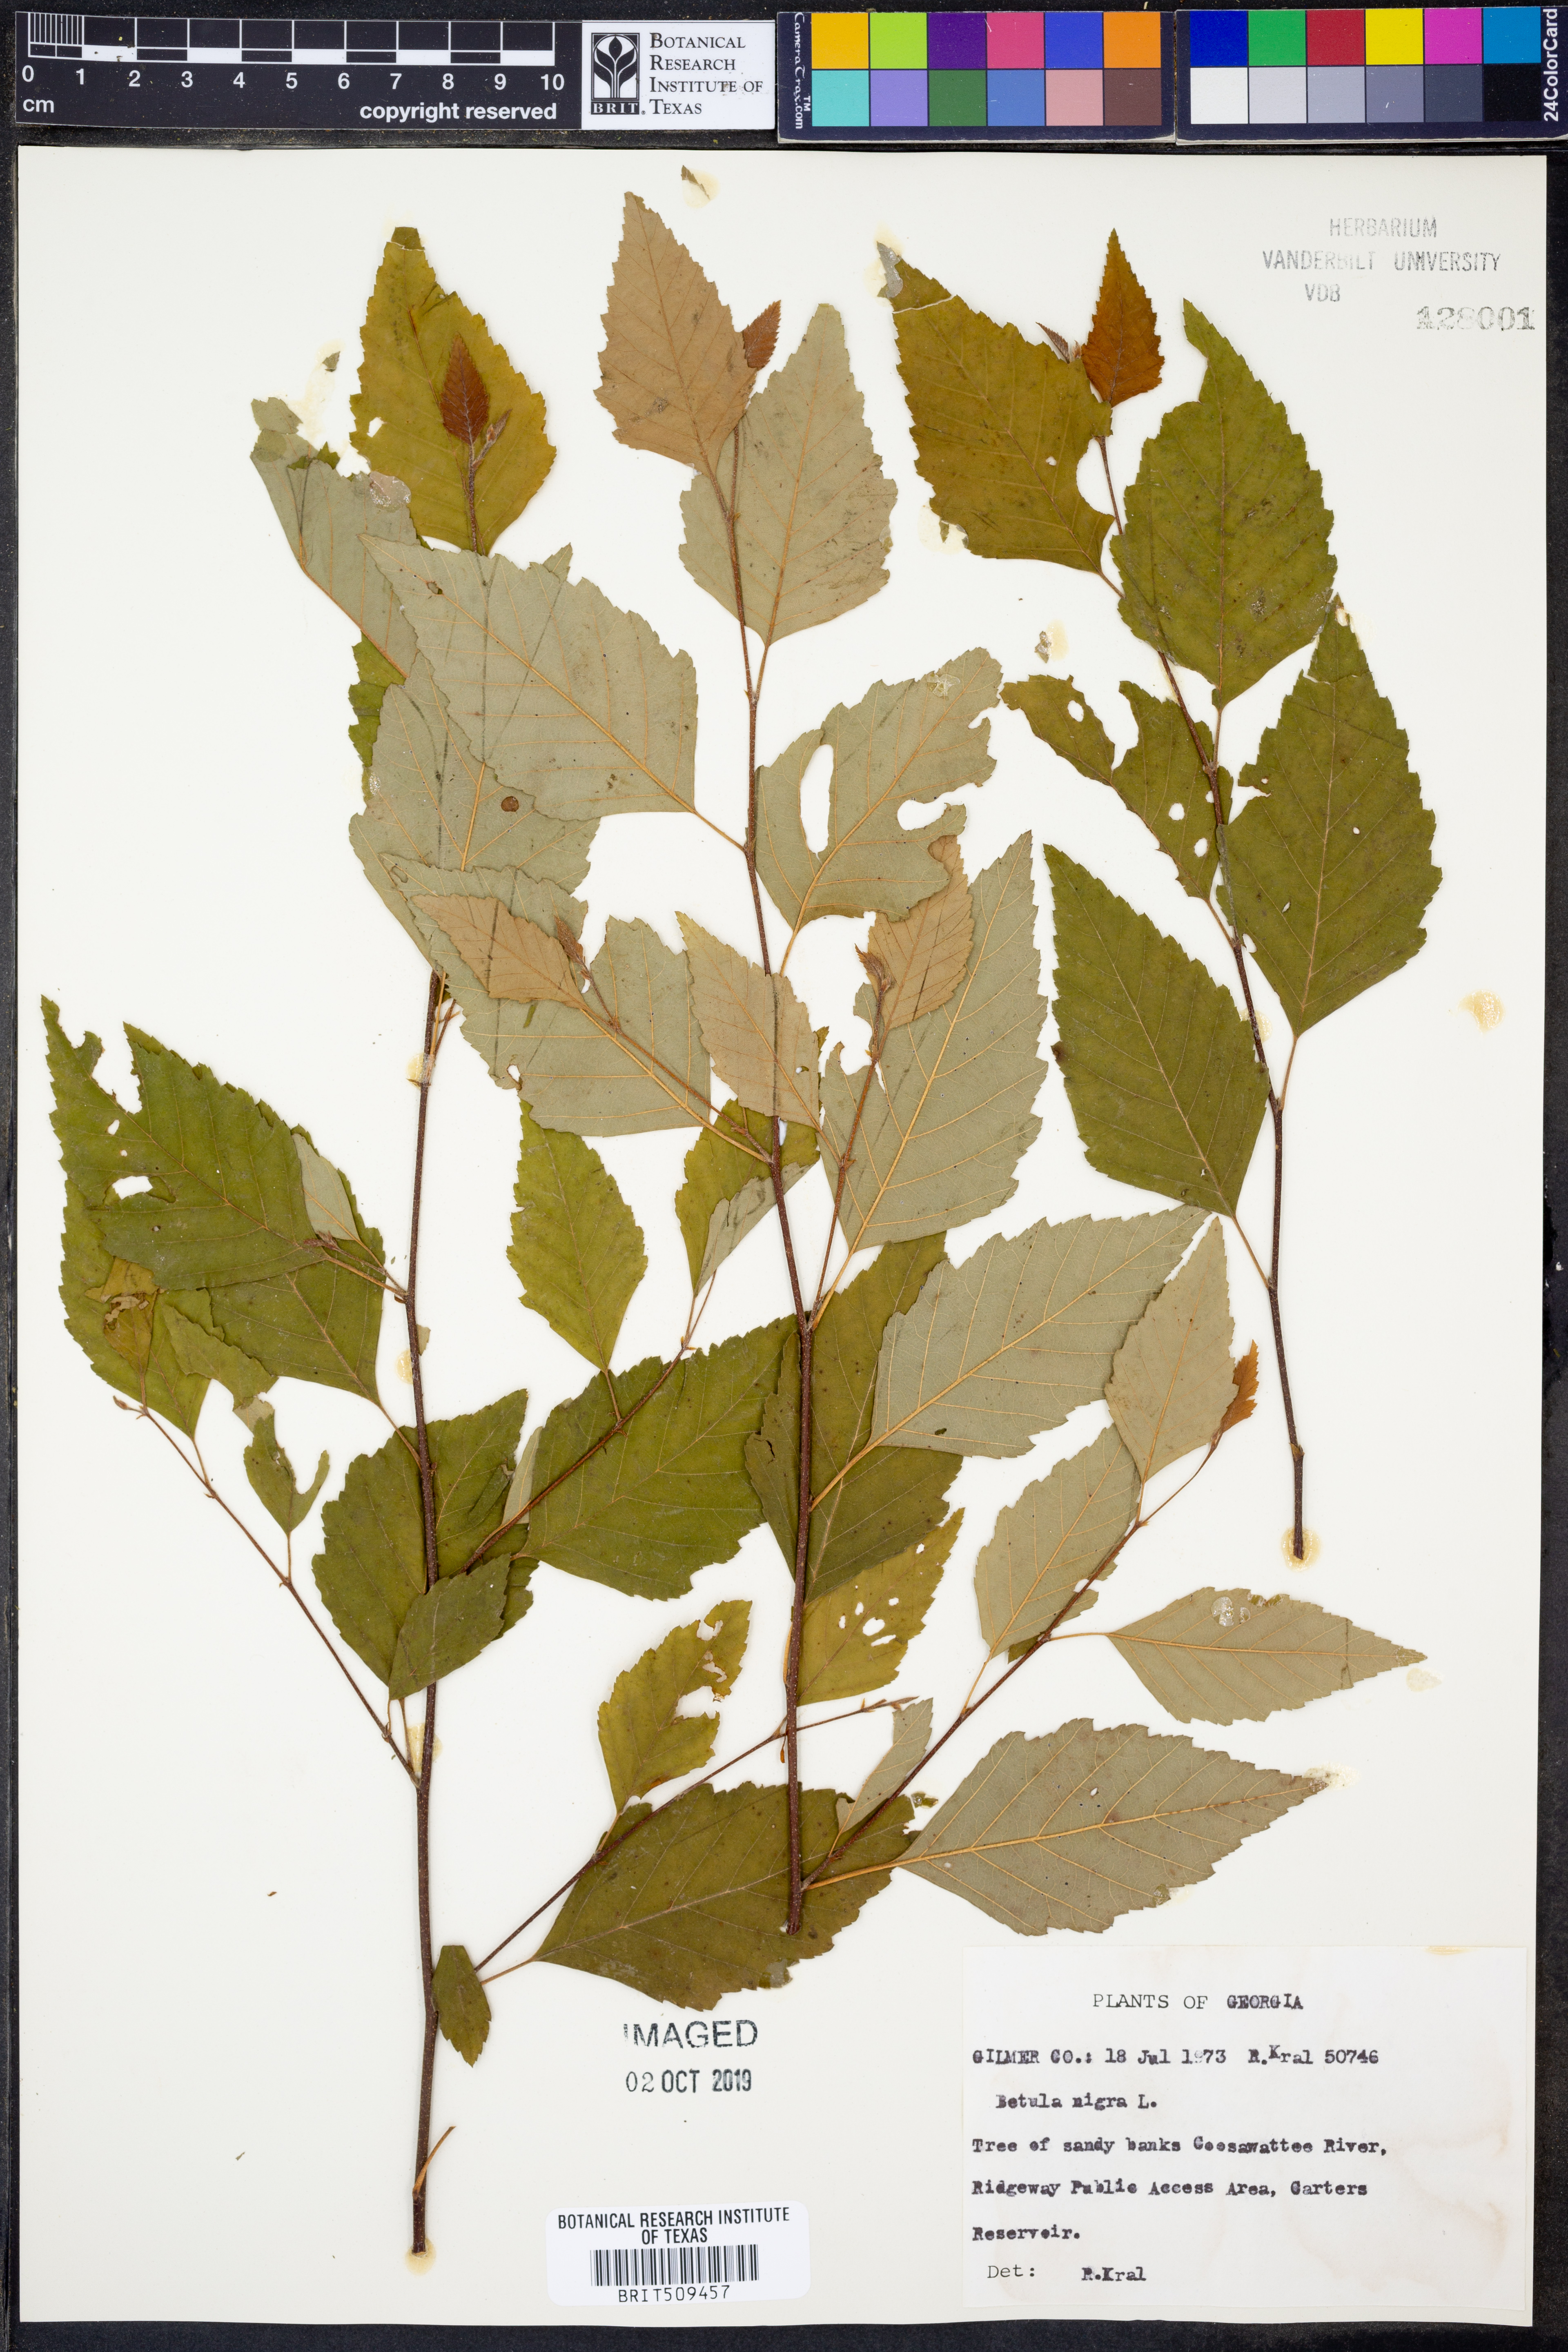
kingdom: Plantae
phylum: Tracheophyta
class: Magnoliopsida
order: Fagales
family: Betulaceae
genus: Betula
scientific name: Betula nigra
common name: Black birch
